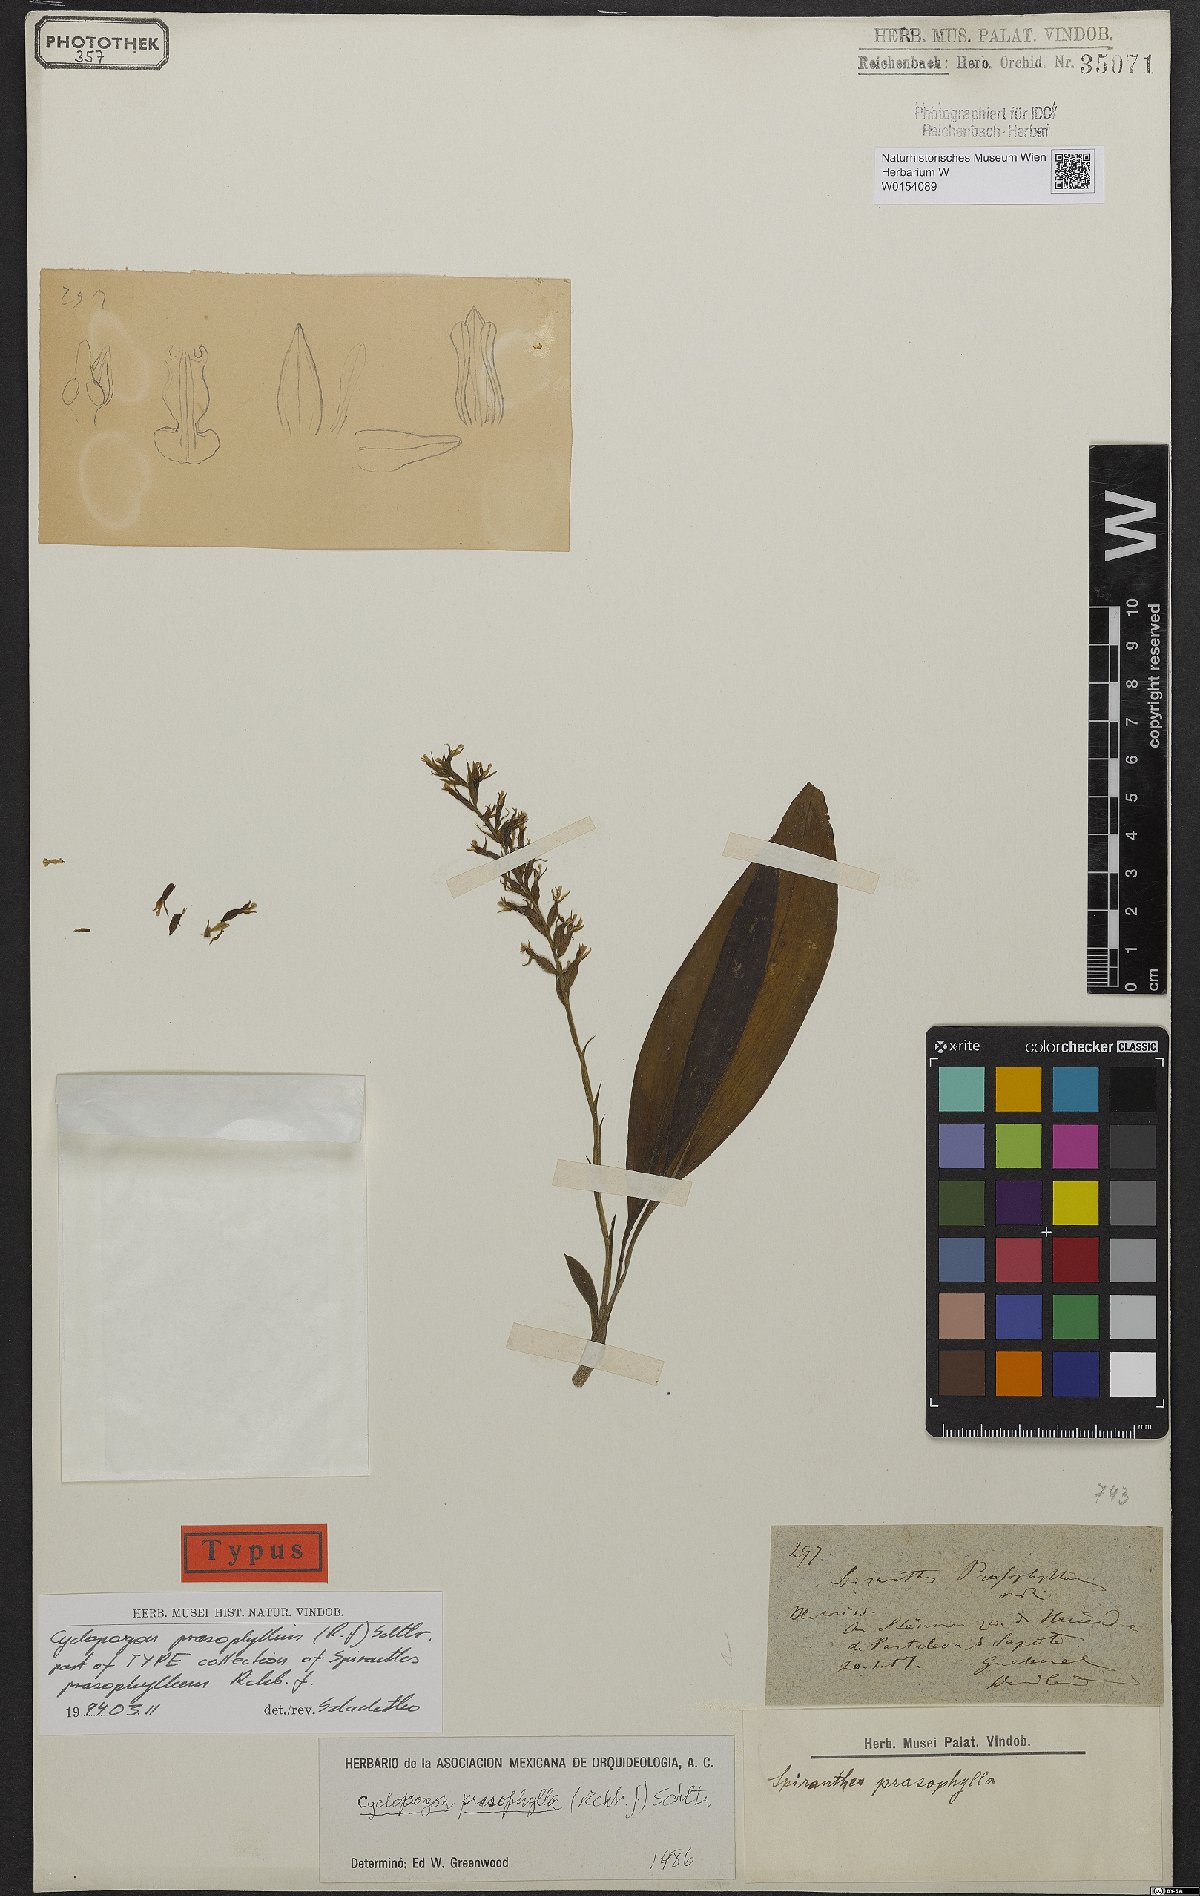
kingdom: Plantae
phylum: Tracheophyta
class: Liliopsida
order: Asparagales
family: Orchidaceae
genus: Cyclopogon
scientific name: Cyclopogon prasophyllus
